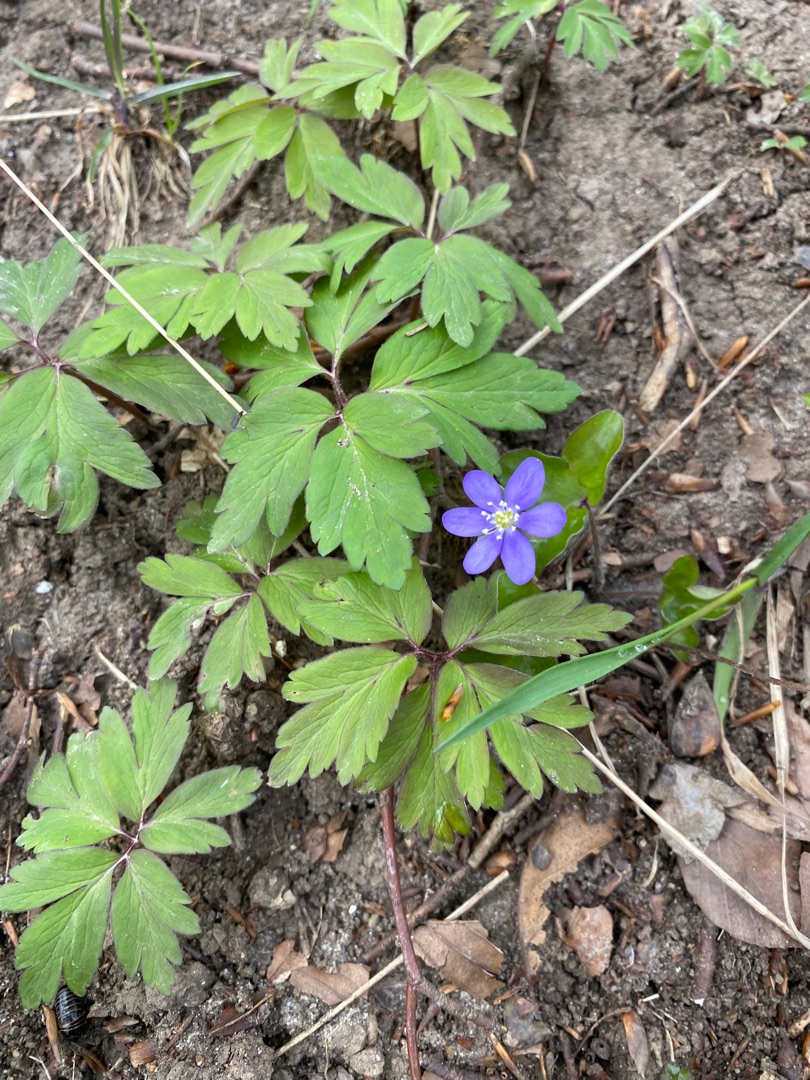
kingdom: Plantae
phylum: Tracheophyta
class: Magnoliopsida
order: Ranunculales
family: Ranunculaceae
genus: Hepatica
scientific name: Hepatica nobilis
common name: Blå anemone
